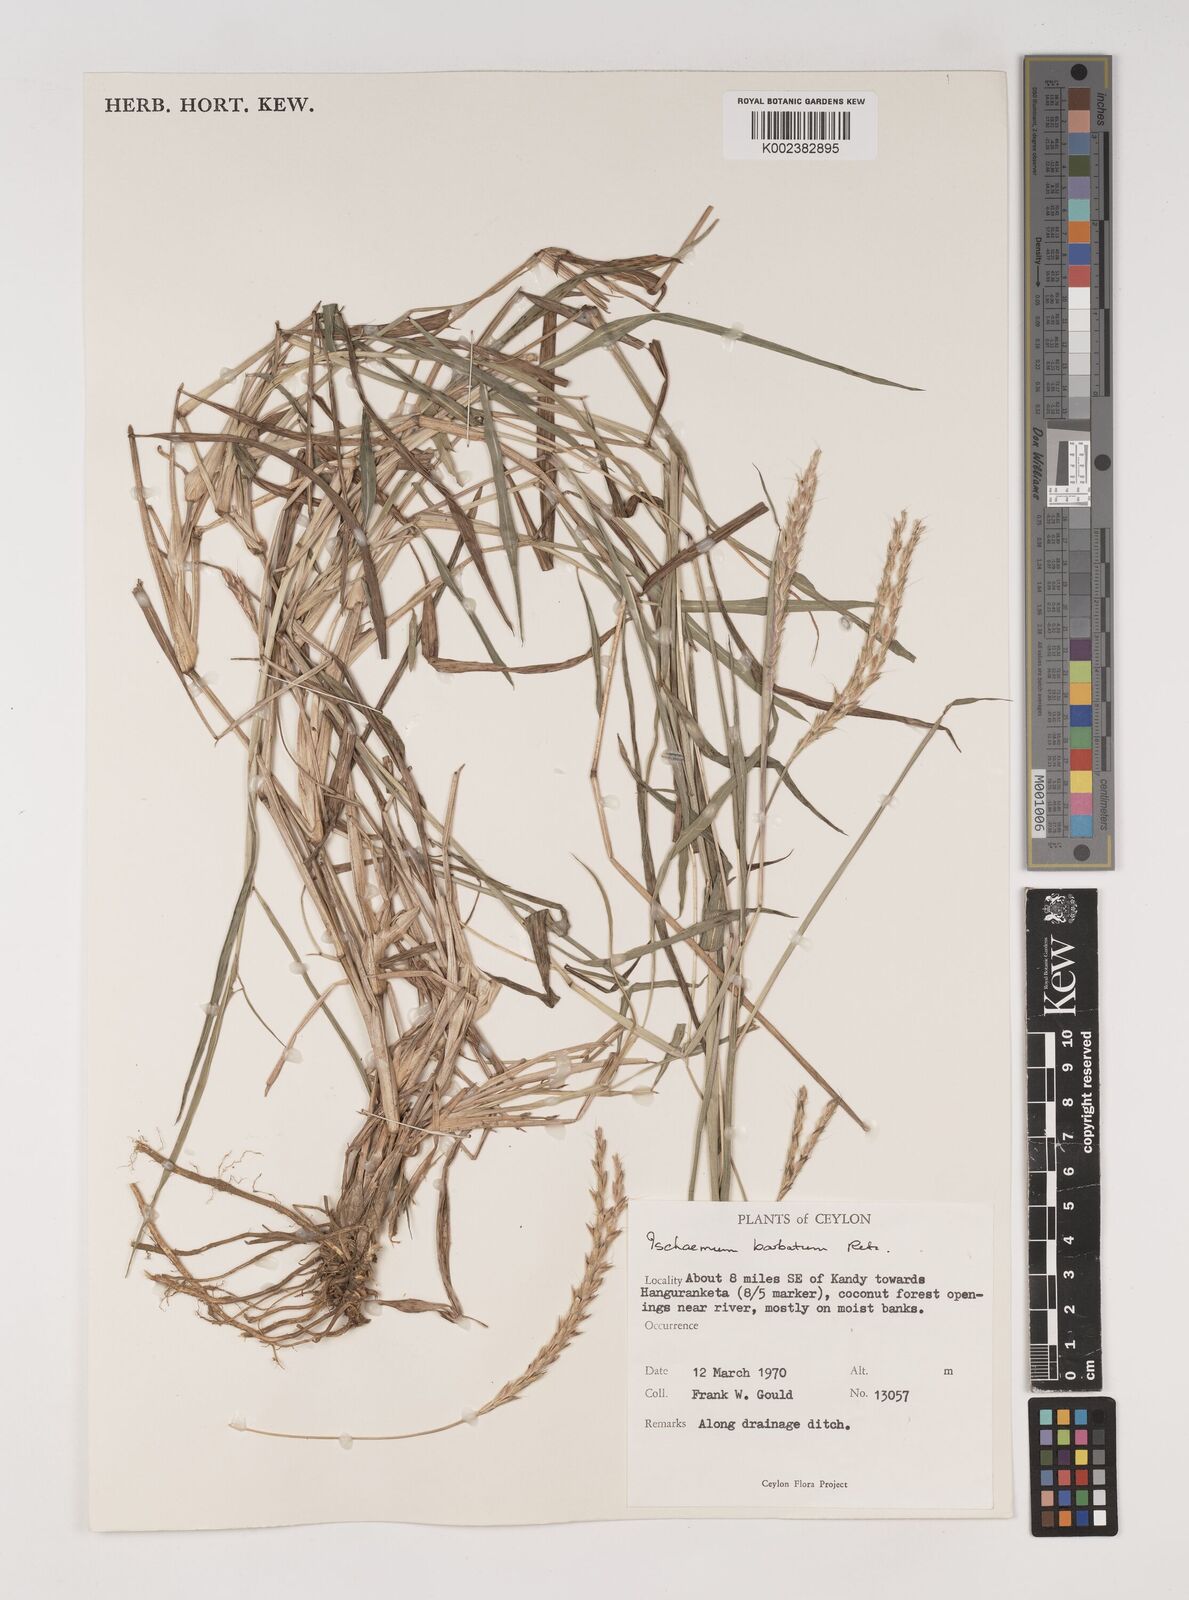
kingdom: Plantae
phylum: Tracheophyta
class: Liliopsida
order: Poales
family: Poaceae
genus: Ischaemum
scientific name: Ischaemum
